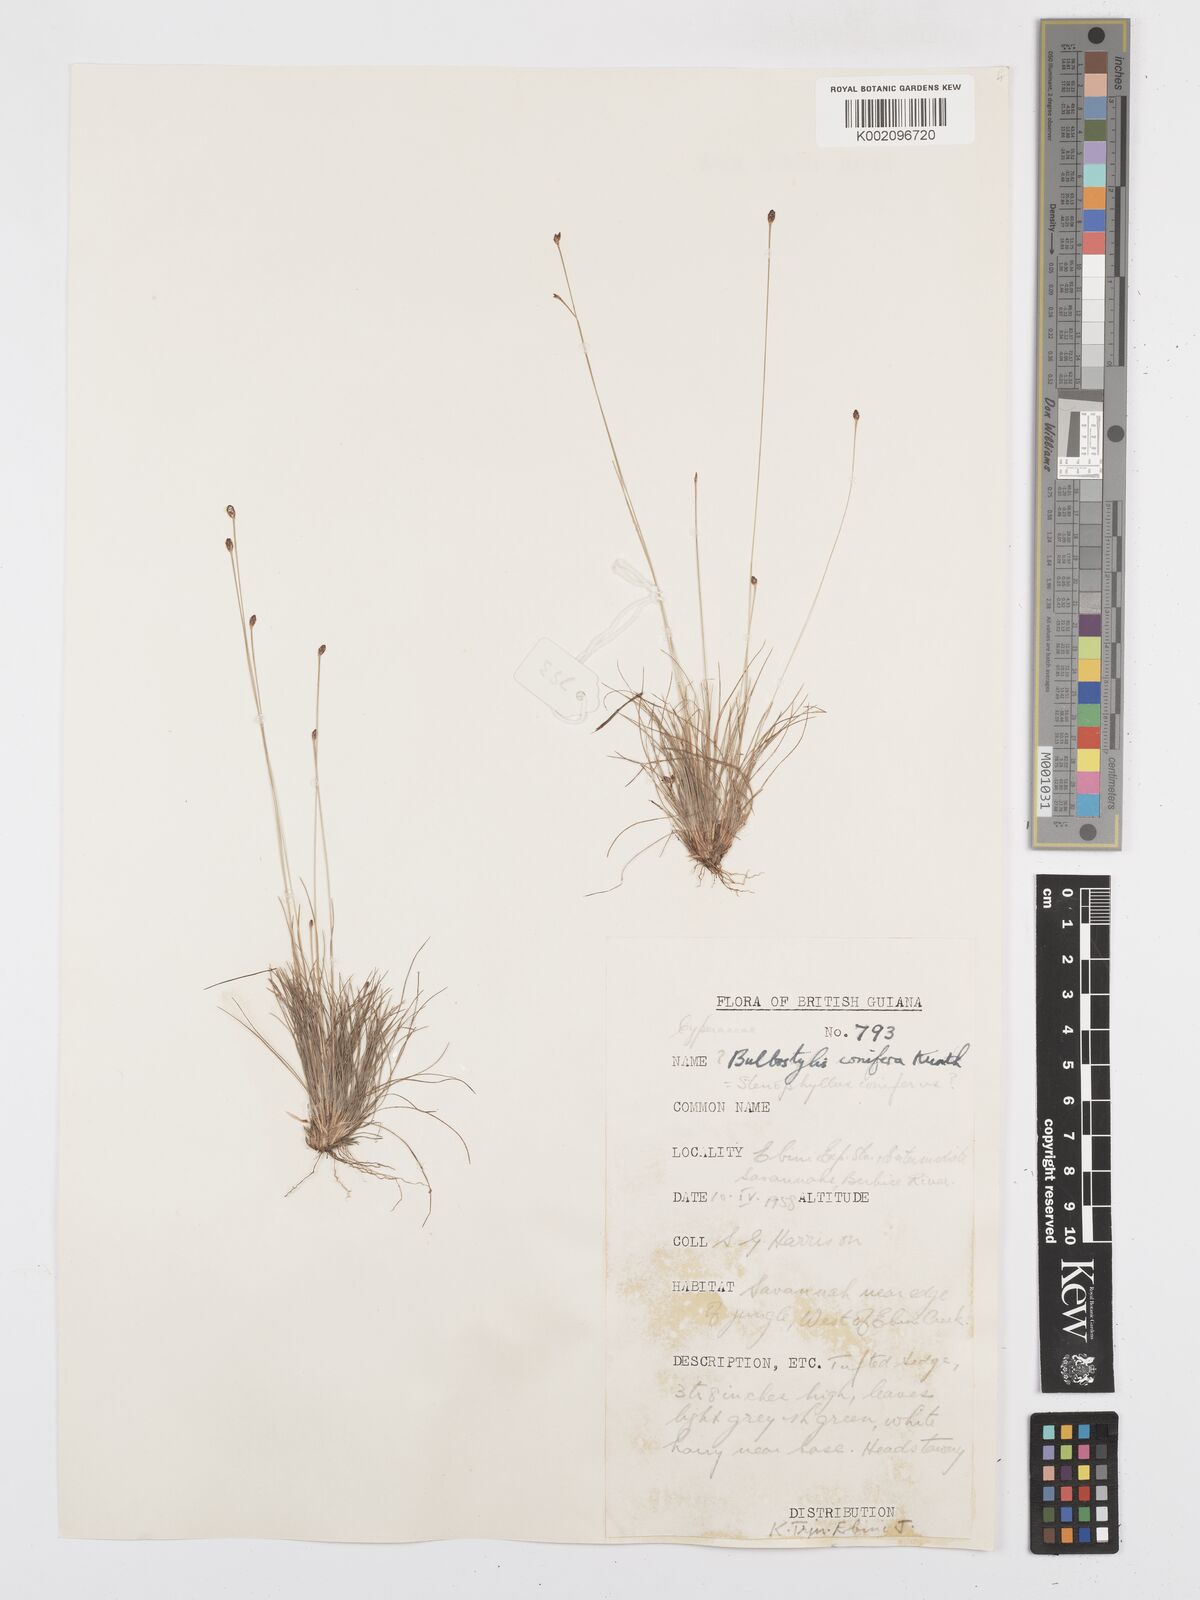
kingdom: Plantae
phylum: Tracheophyta
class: Liliopsida
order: Poales
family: Cyperaceae
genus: Bulbostylis
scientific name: Bulbostylis conifera
